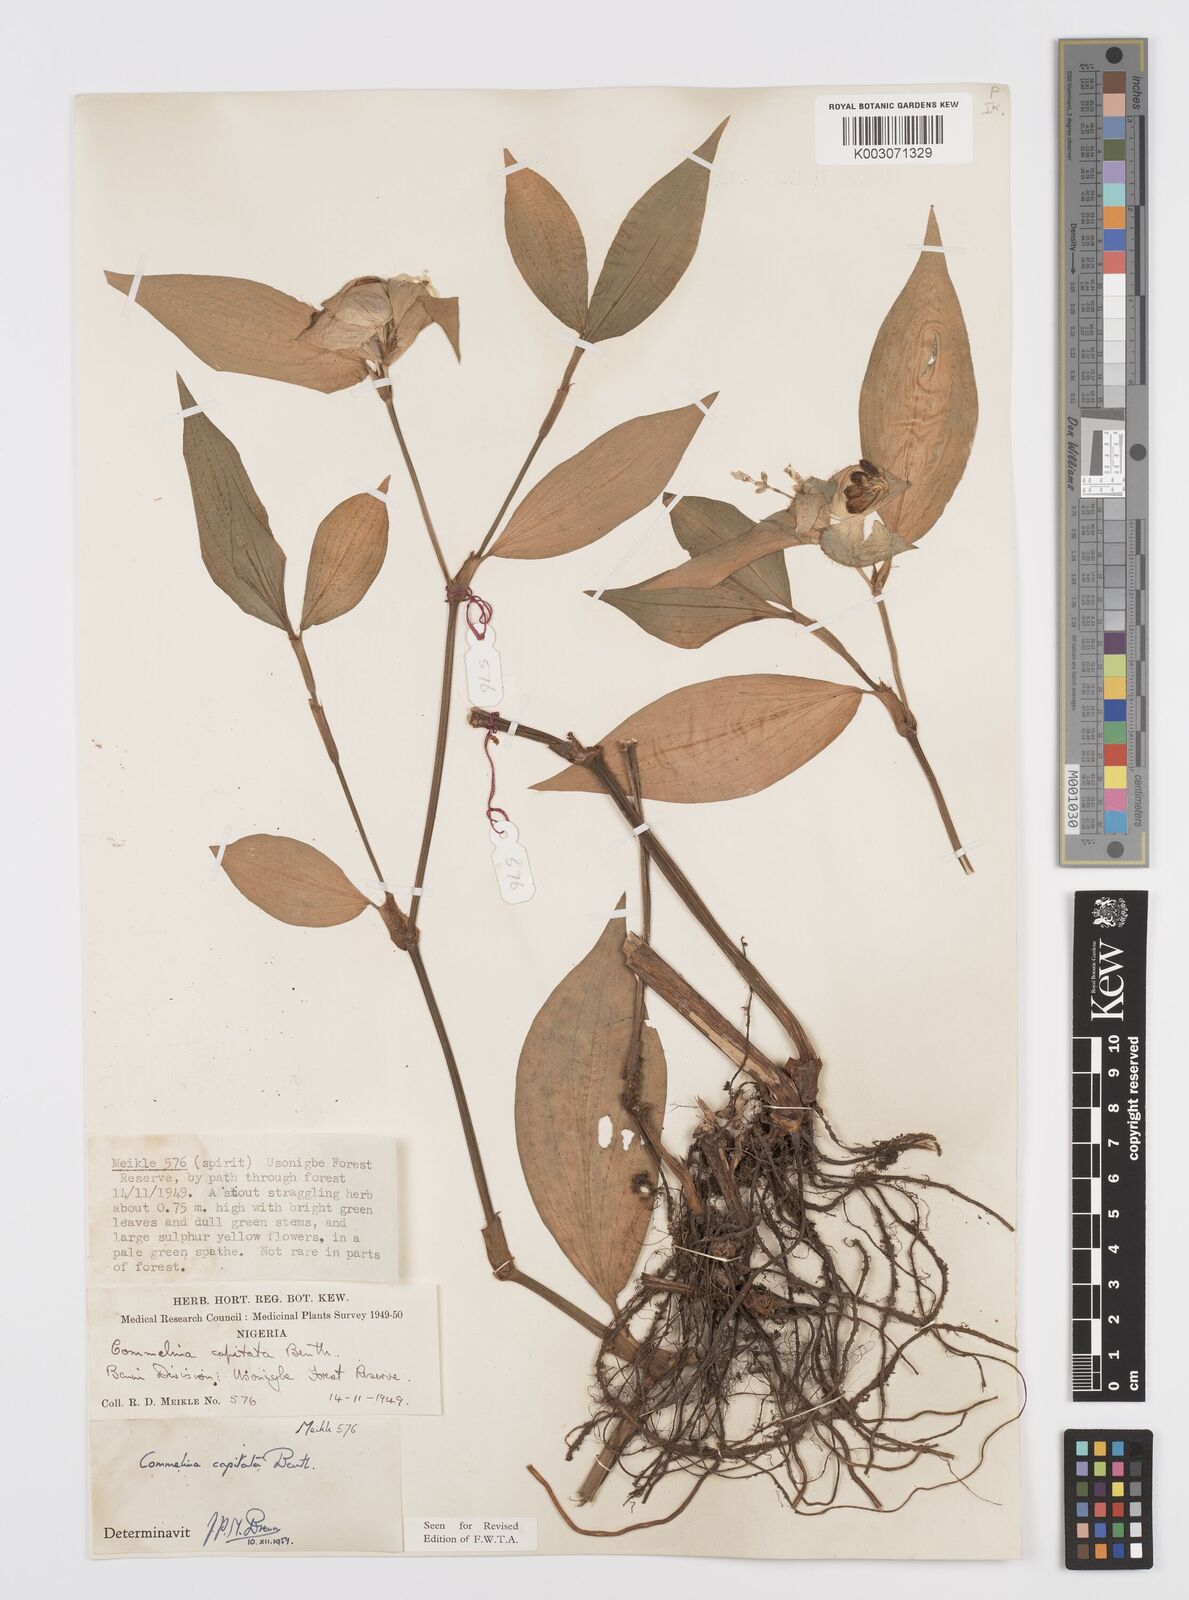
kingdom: Plantae
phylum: Tracheophyta
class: Liliopsida
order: Commelinales
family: Commelinaceae
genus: Commelina
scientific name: Commelina capitata
